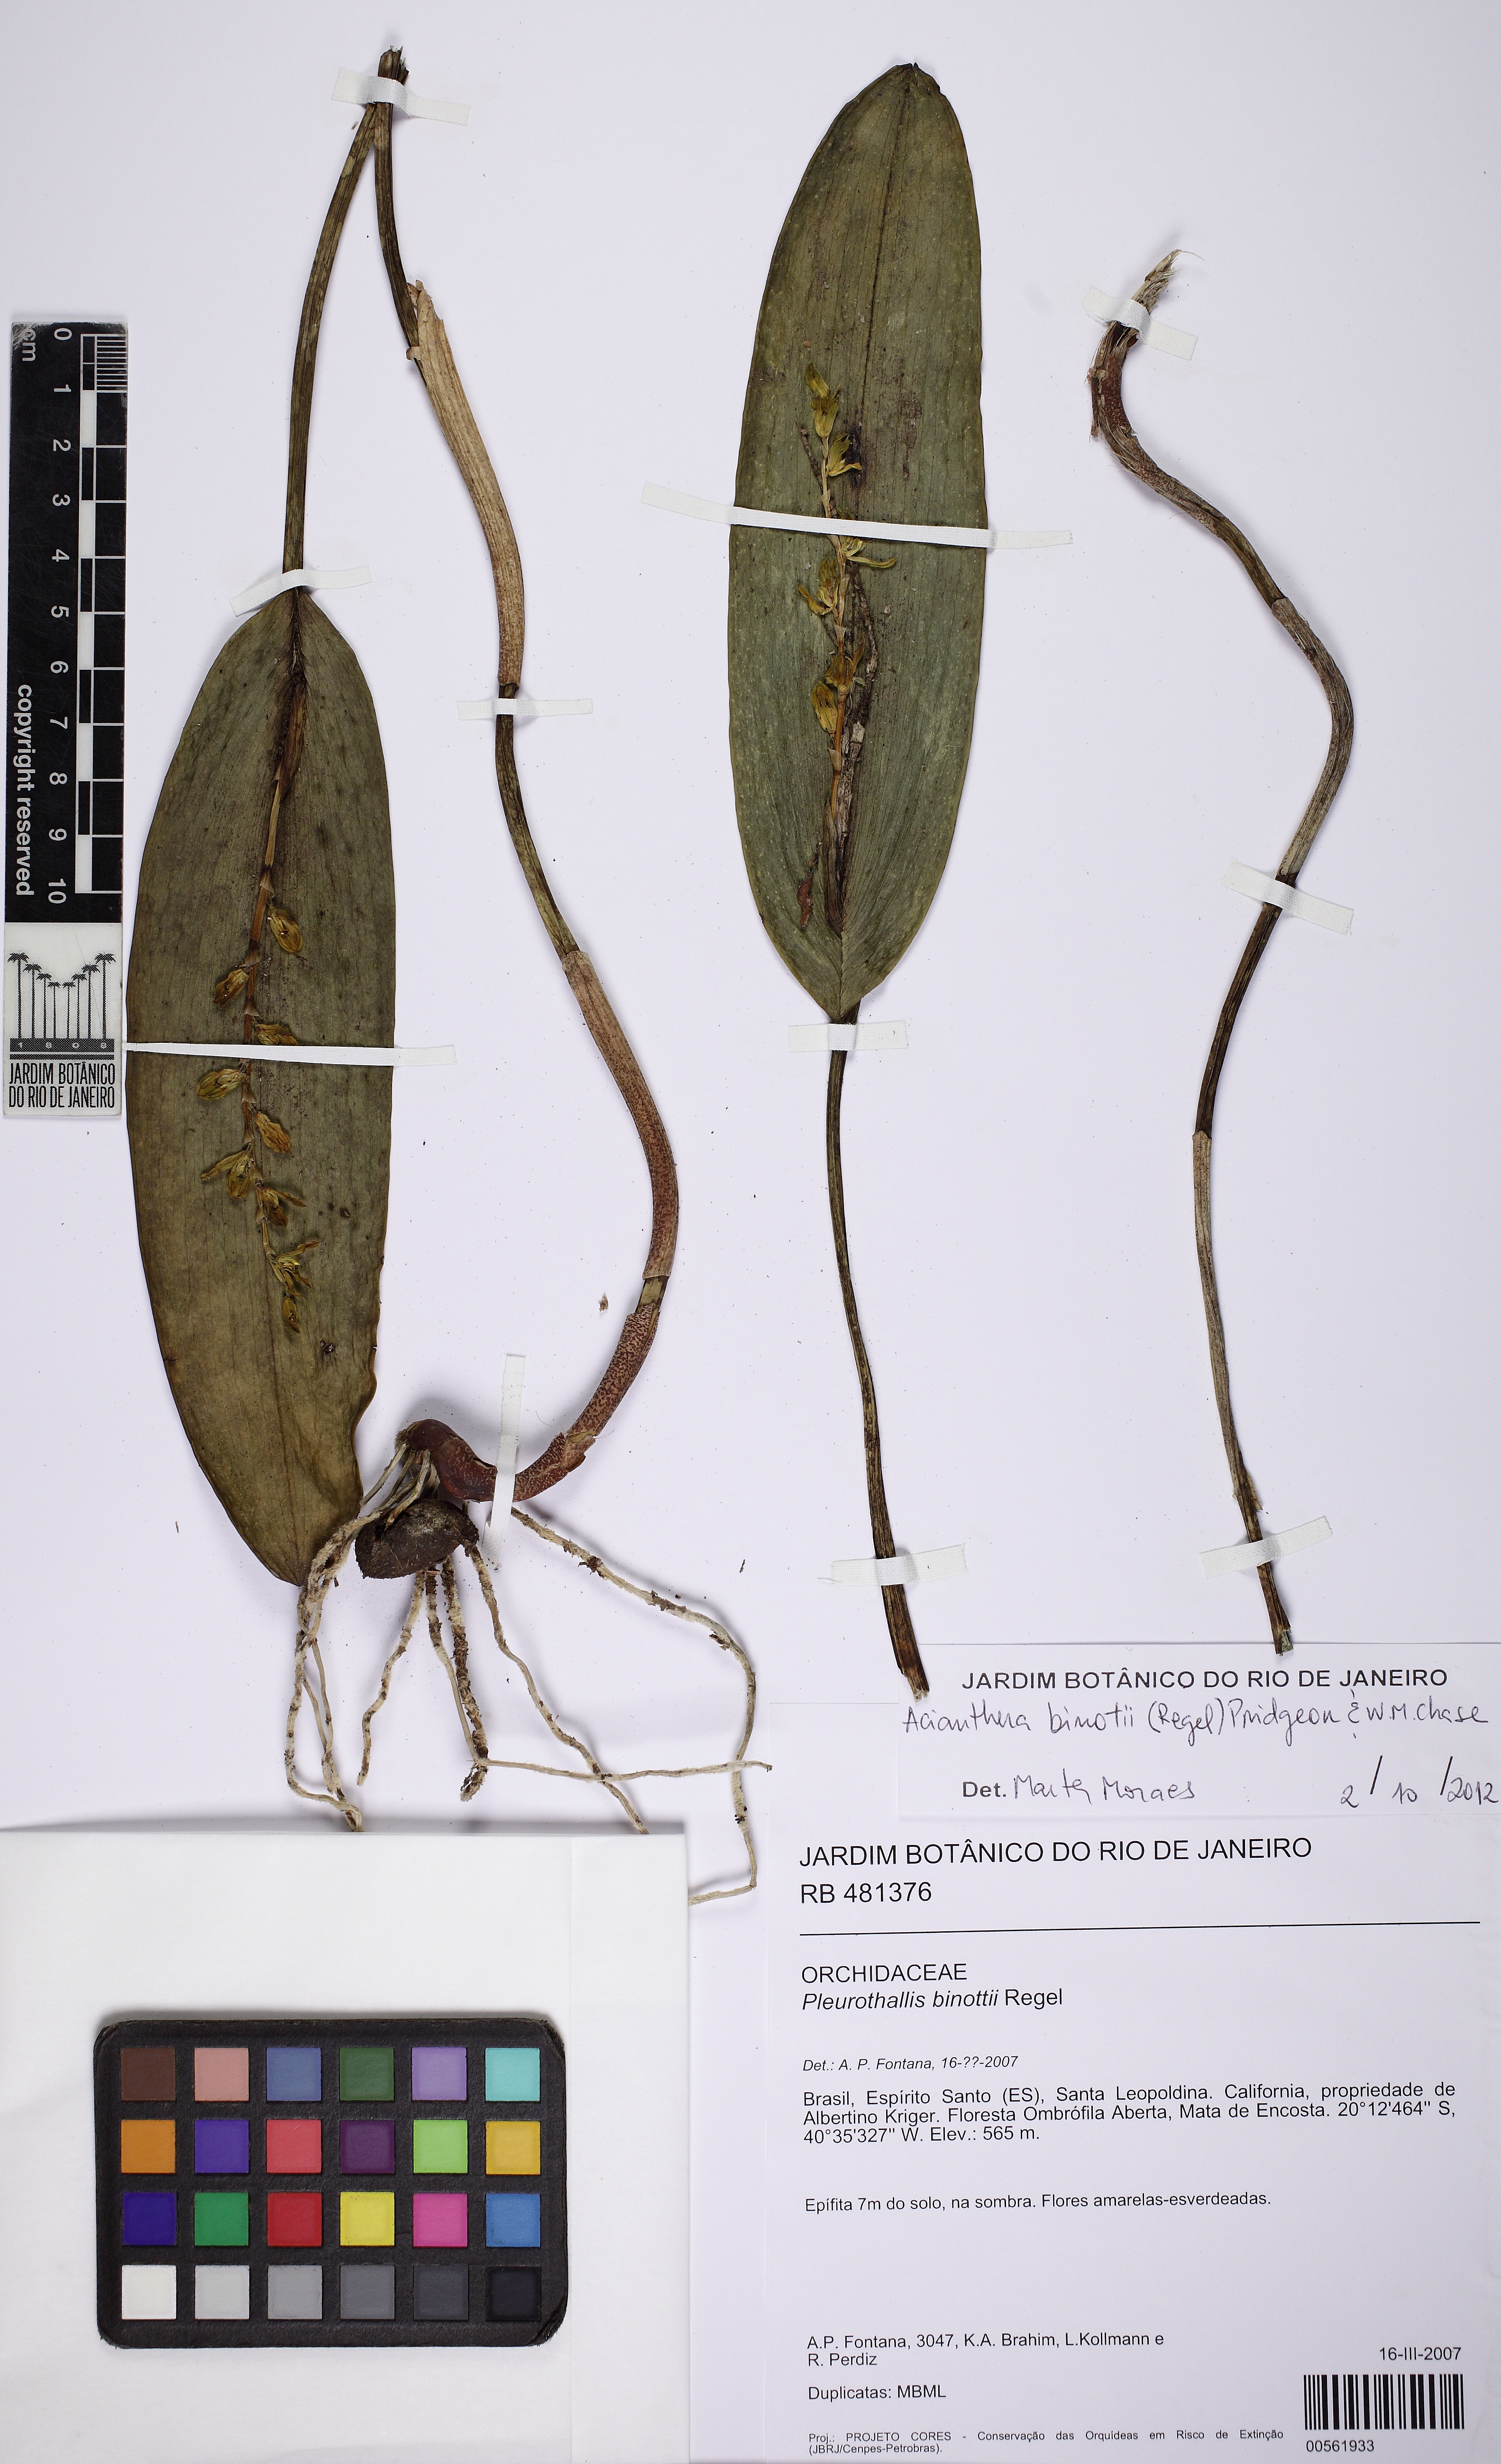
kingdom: Plantae
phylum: Tracheophyta
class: Liliopsida
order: Asparagales
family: Orchidaceae
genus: Acianthera
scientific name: Acianthera binotii
